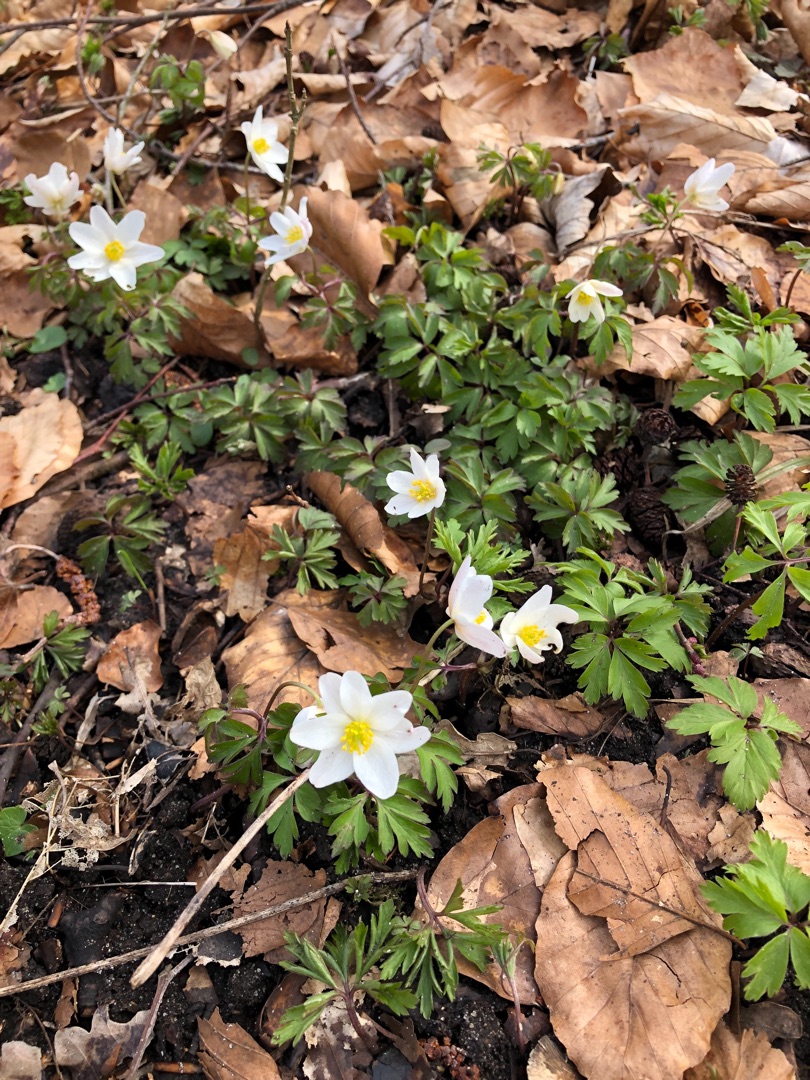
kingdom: Plantae
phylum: Tracheophyta
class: Magnoliopsida
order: Ranunculales
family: Ranunculaceae
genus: Anemone
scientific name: Anemone nemorosa
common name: Hvid anemone
